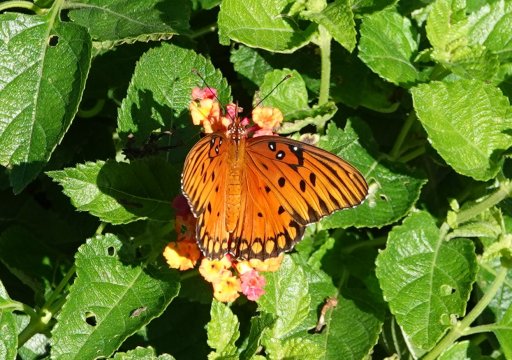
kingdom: Animalia
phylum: Arthropoda
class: Insecta
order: Lepidoptera
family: Nymphalidae
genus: Dione
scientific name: Dione vanillae
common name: Gulf Fritillary
